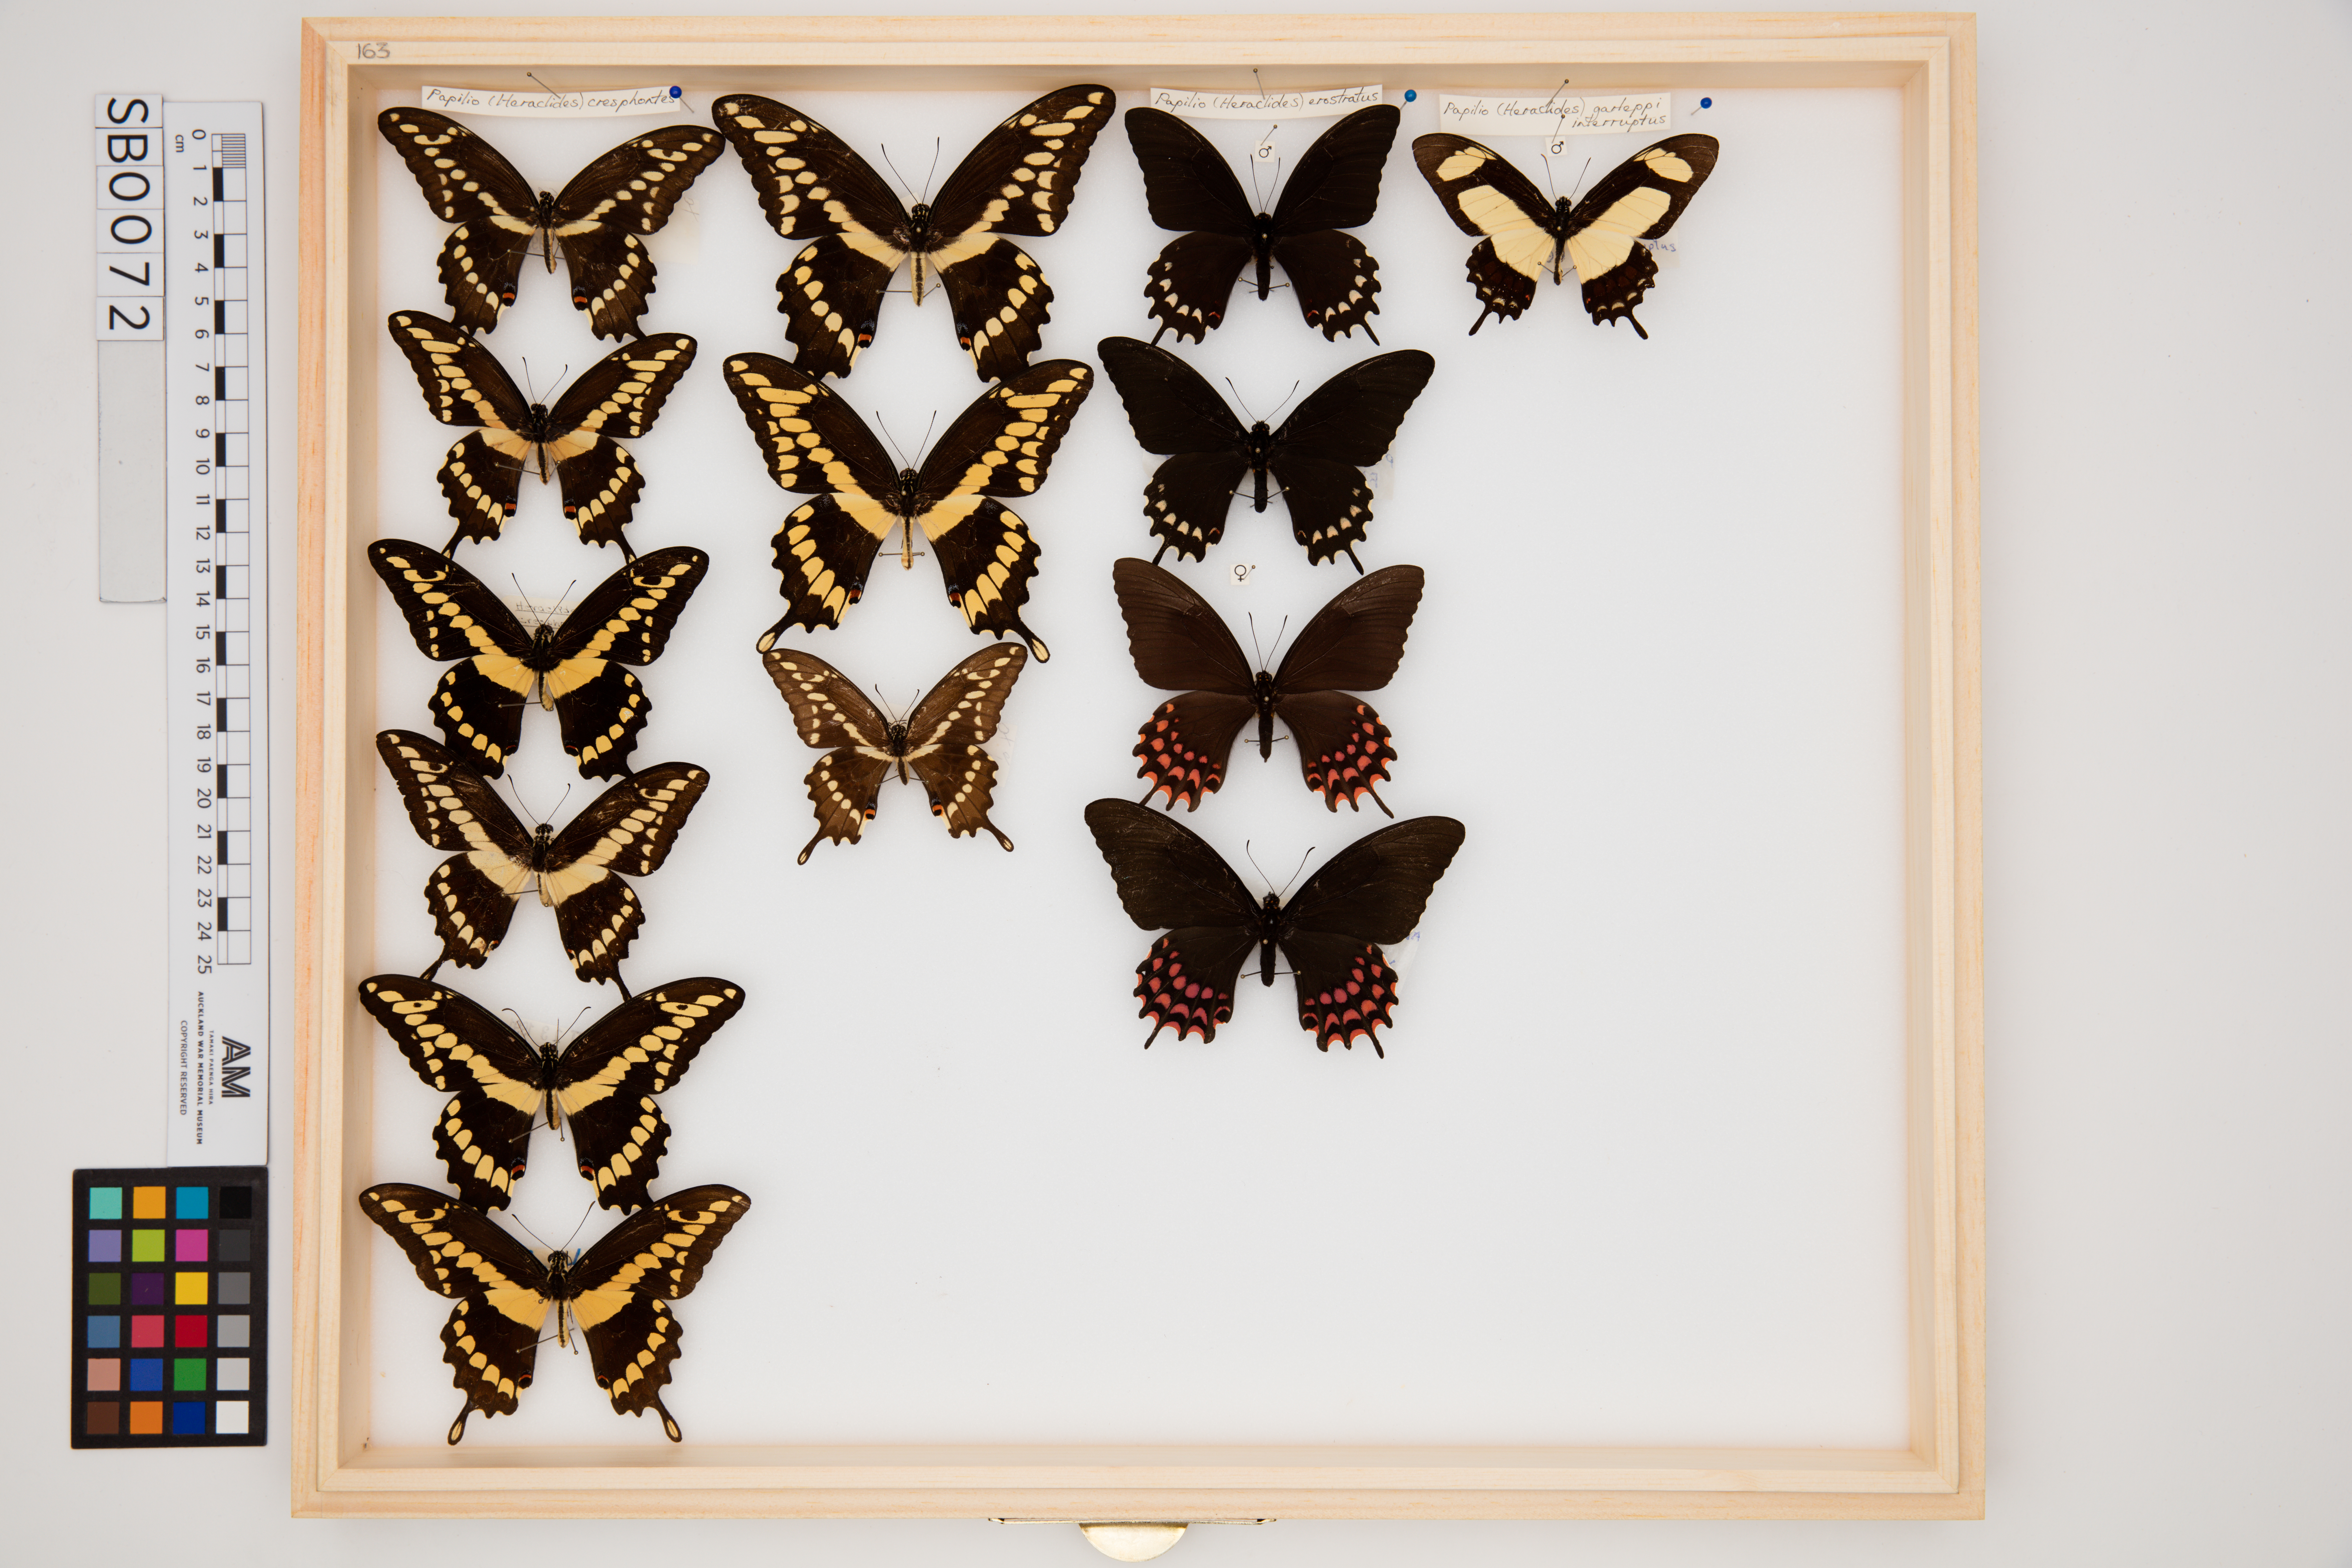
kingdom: Animalia
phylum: Arthropoda
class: Insecta
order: Lepidoptera
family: Papilionidae
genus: Papilio
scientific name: Papilio cresphontes
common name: Giant swallowtail
